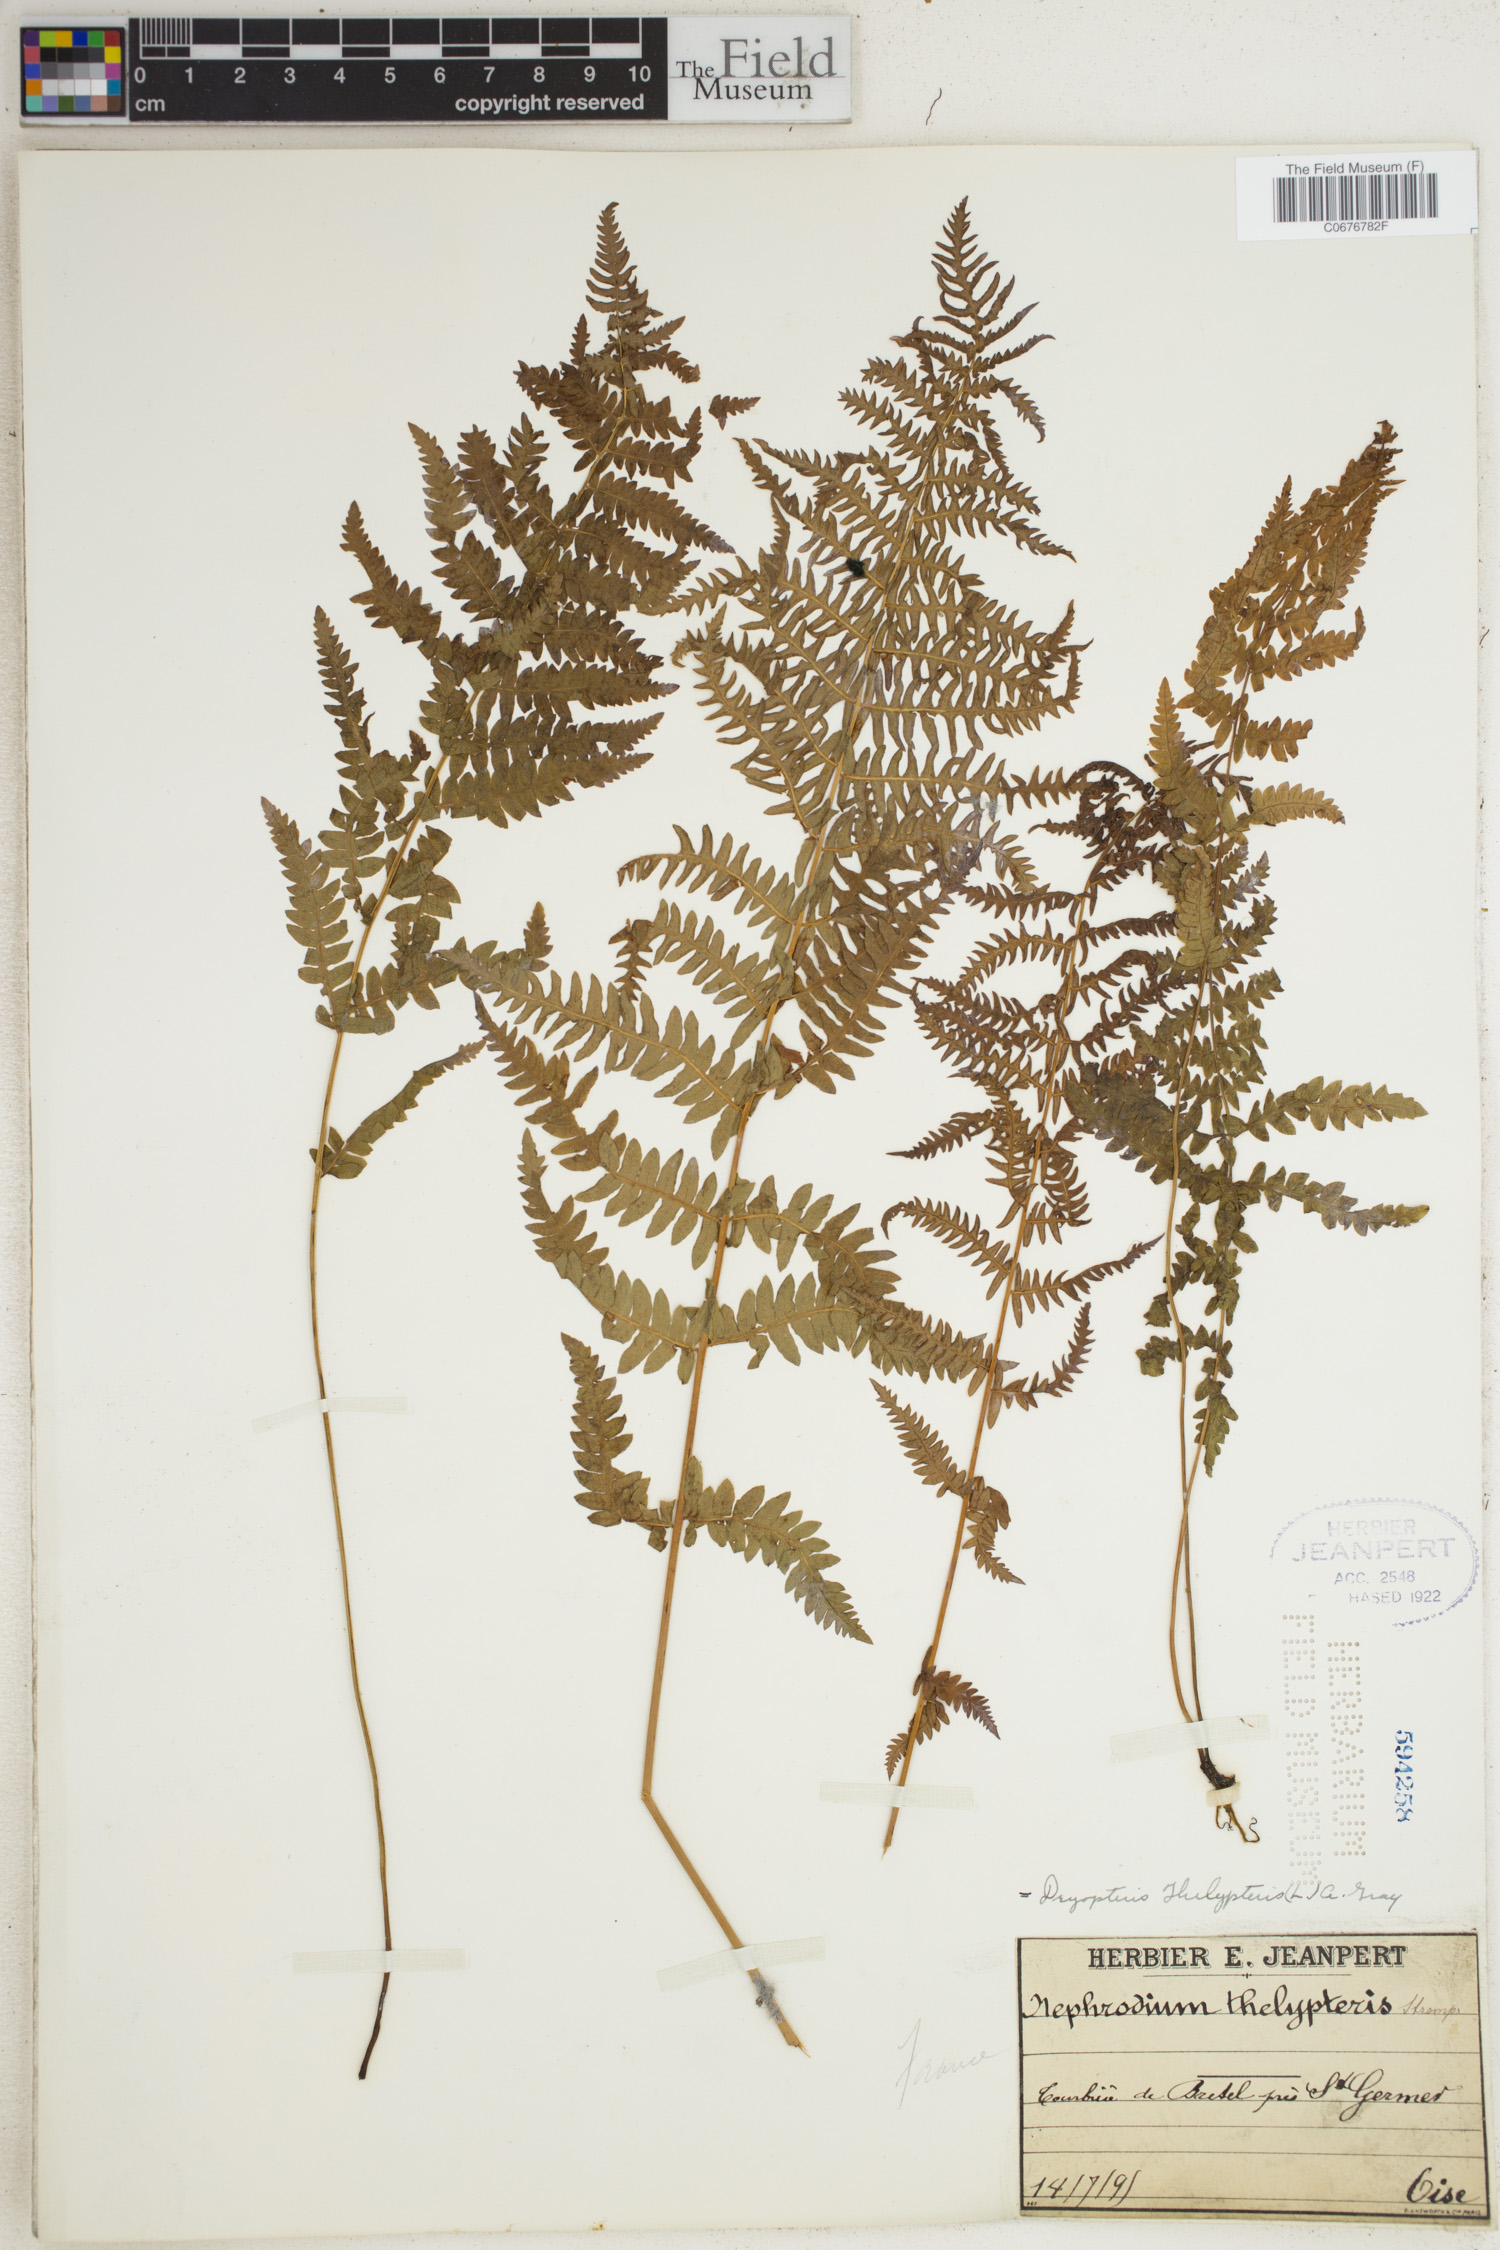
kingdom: Plantae
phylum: Tracheophyta
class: Polypodiopsida
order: Polypodiales
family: Thelypteridaceae
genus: Thelypteris
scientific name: Thelypteris palustris
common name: Marsh fern
